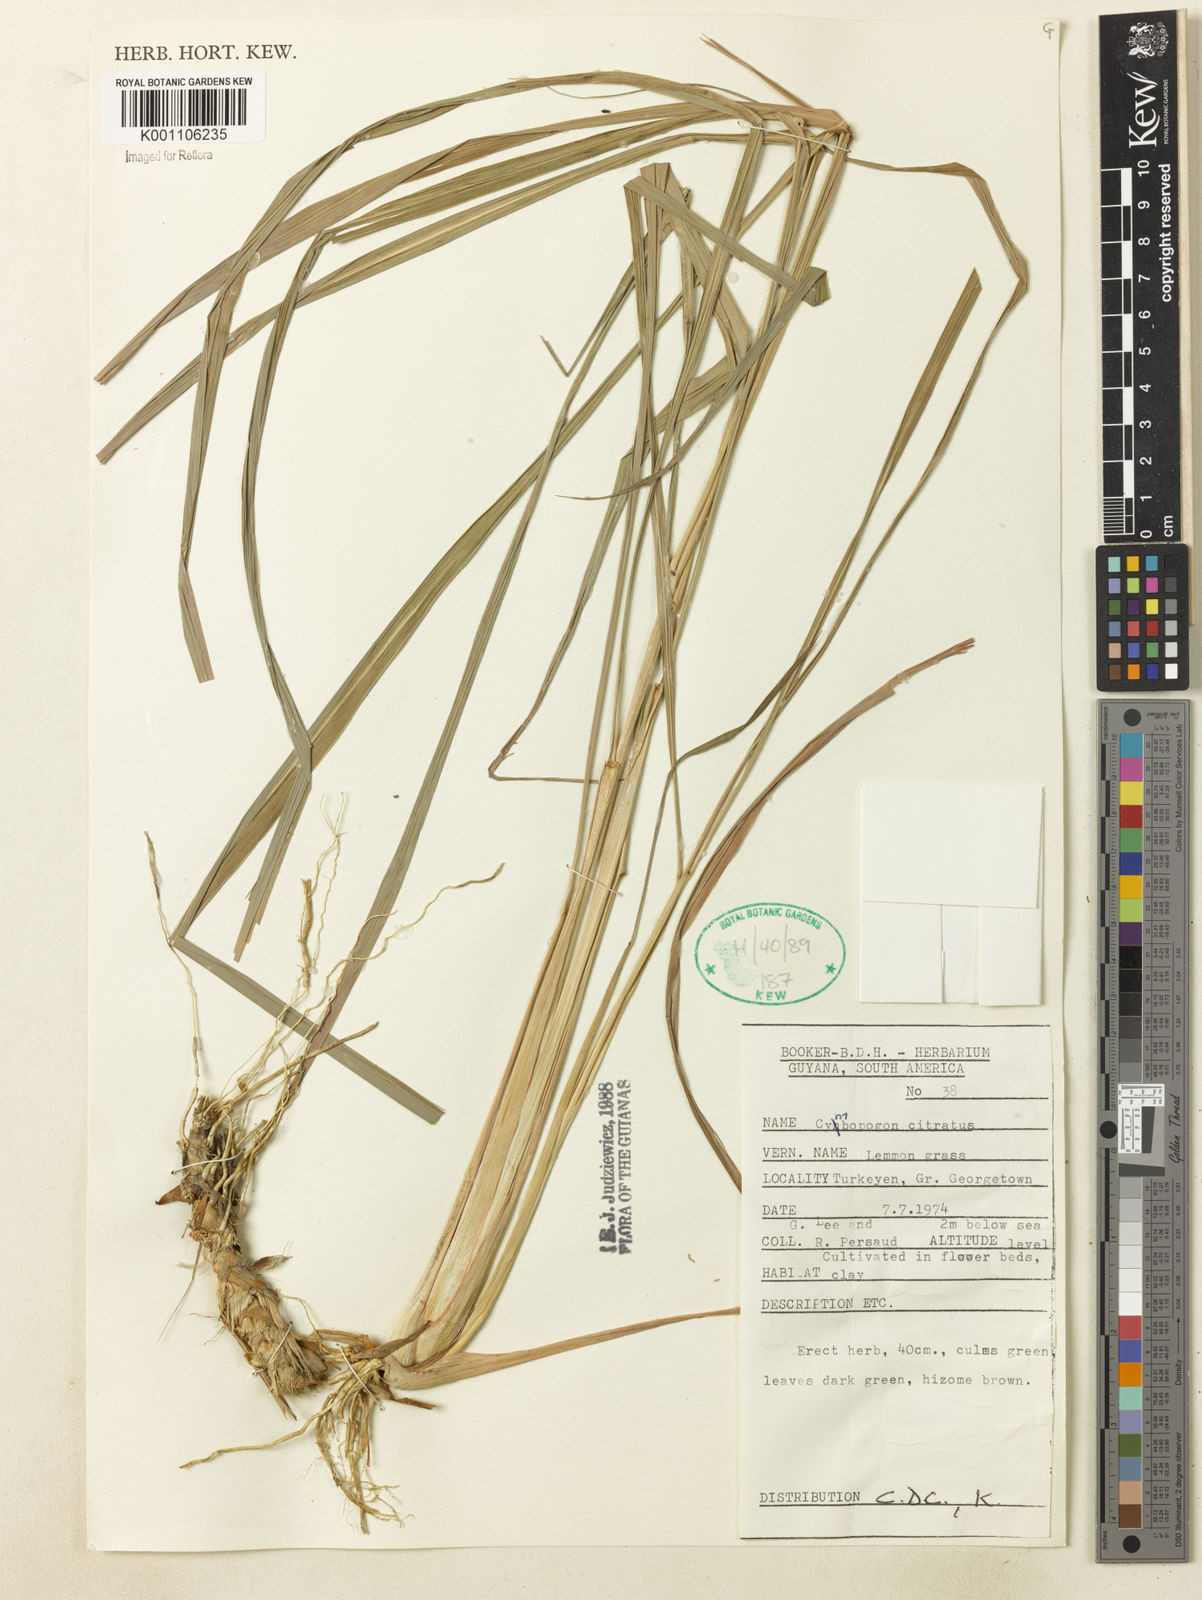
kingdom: Plantae
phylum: Tracheophyta
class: Liliopsida
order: Poales
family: Poaceae
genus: Cymbopogon
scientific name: Cymbopogon citratus
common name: Lemon grass
